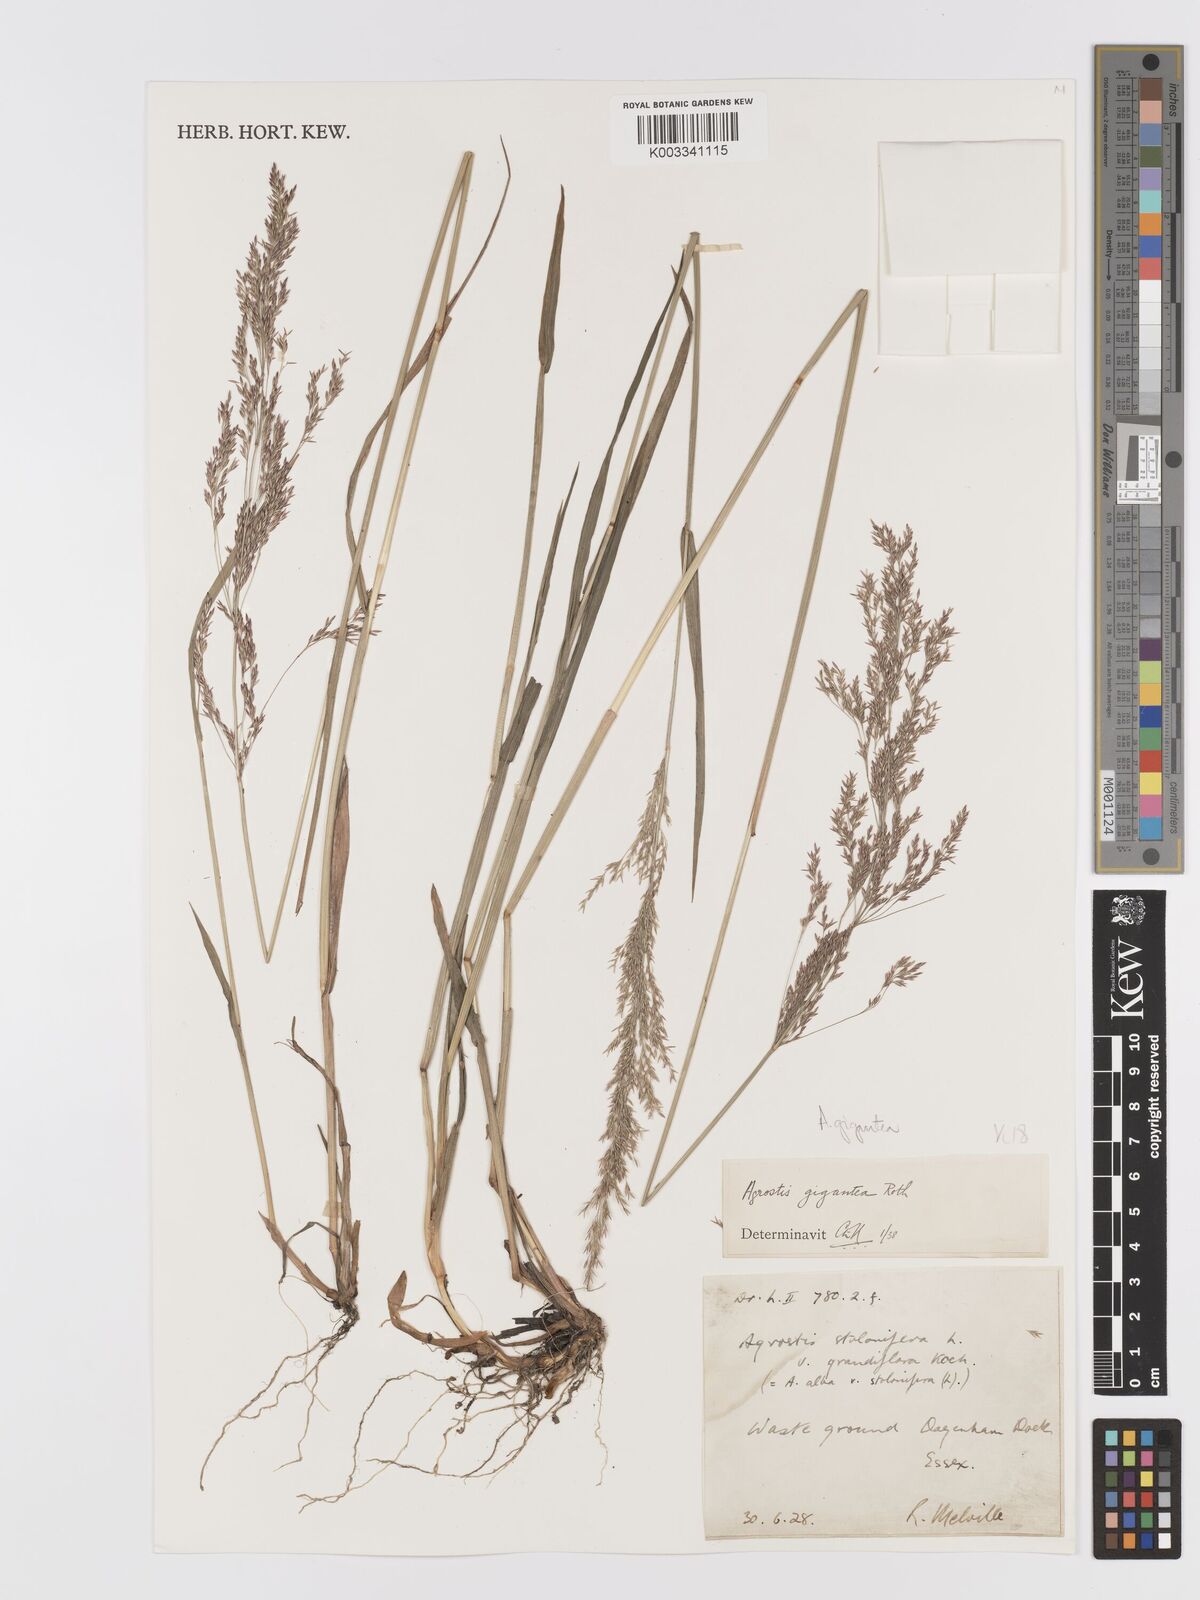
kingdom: Plantae
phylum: Tracheophyta
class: Liliopsida
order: Poales
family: Poaceae
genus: Agrostis
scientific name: Agrostis gigantea
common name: Black bent
